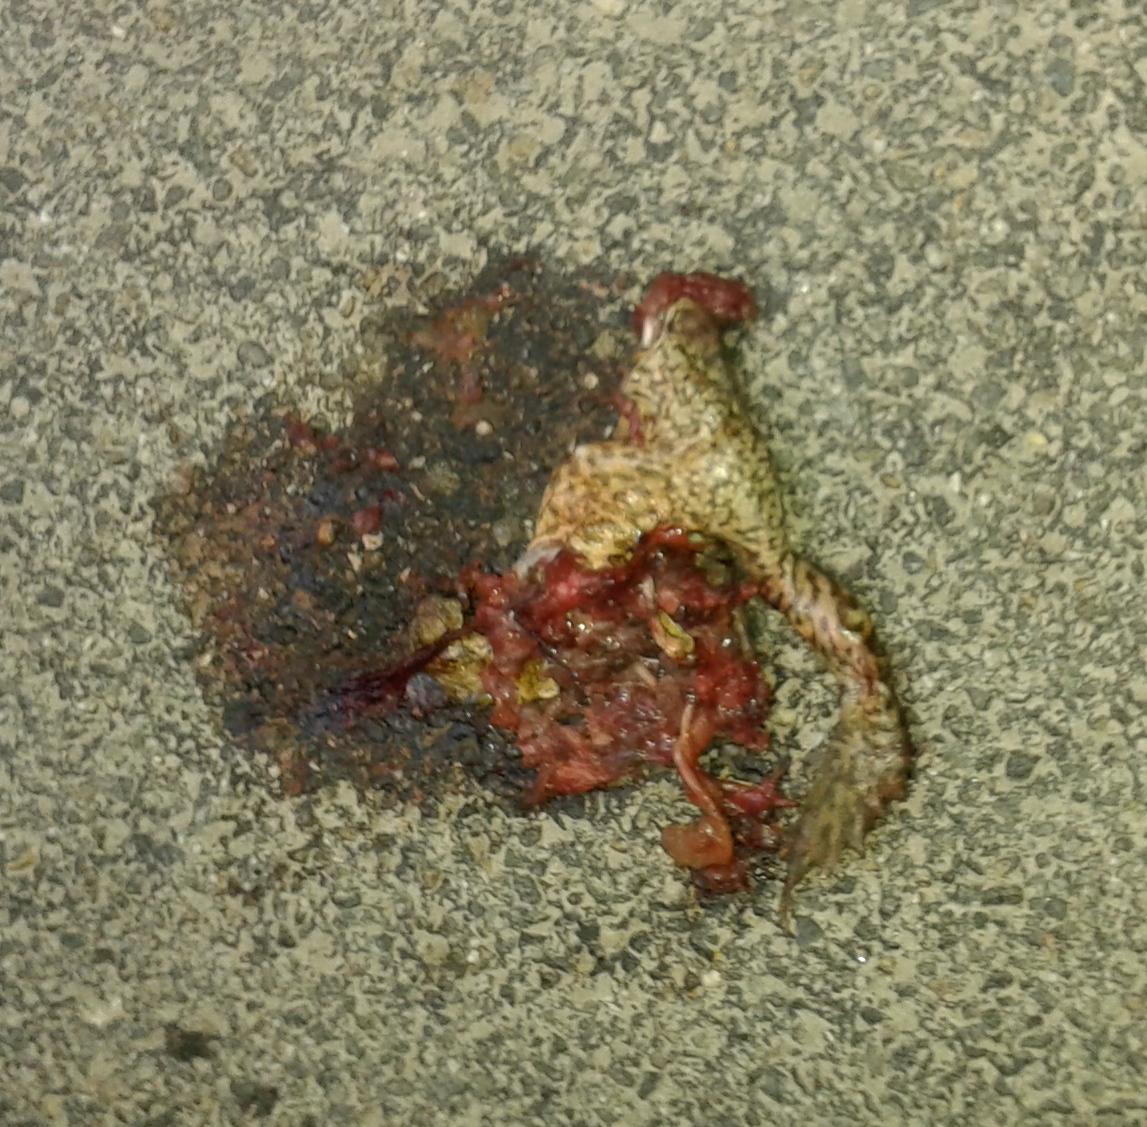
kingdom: Animalia
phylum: Chordata
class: Amphibia
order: Anura
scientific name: Anura
